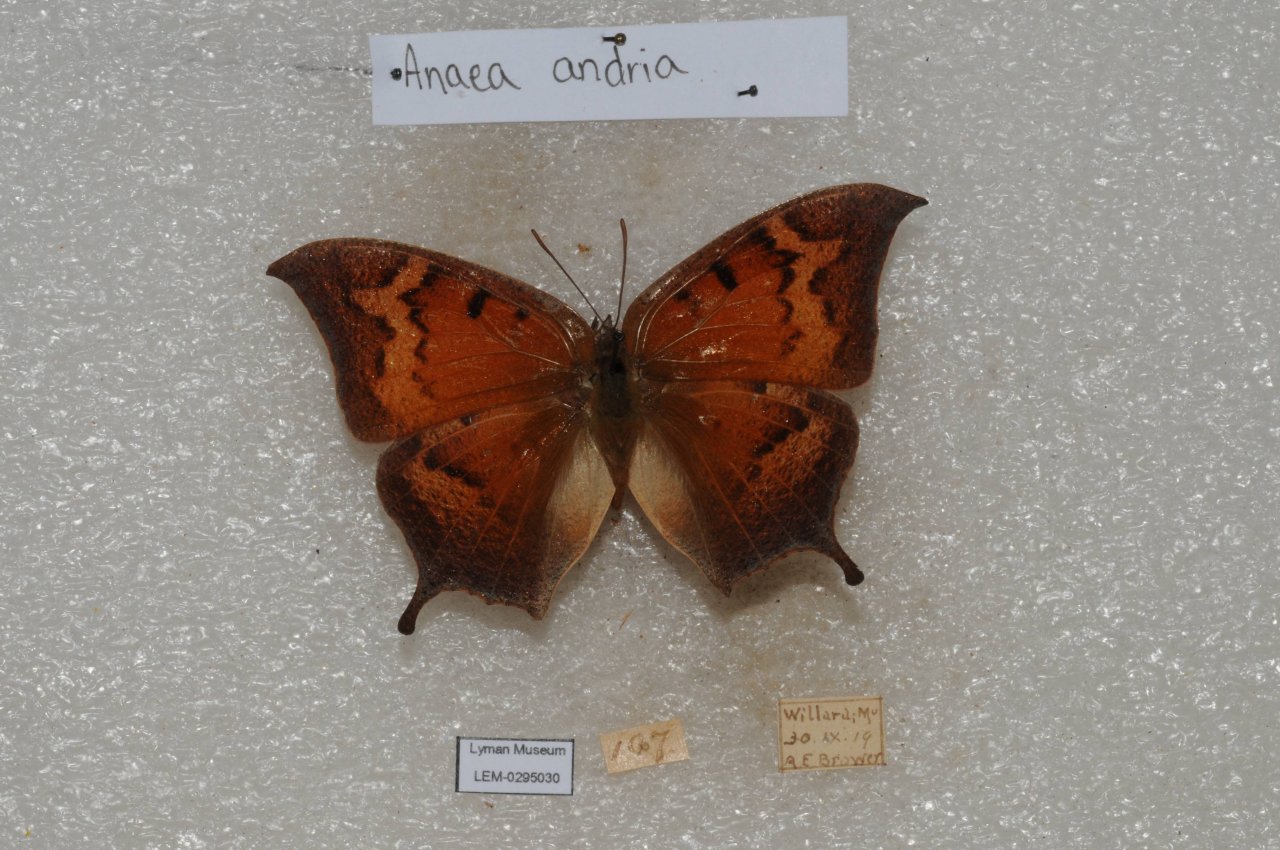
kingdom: Animalia
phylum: Arthropoda
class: Insecta
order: Lepidoptera
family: Nymphalidae
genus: Anaea
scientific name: Anaea andria
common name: Goatweed Leafwing
